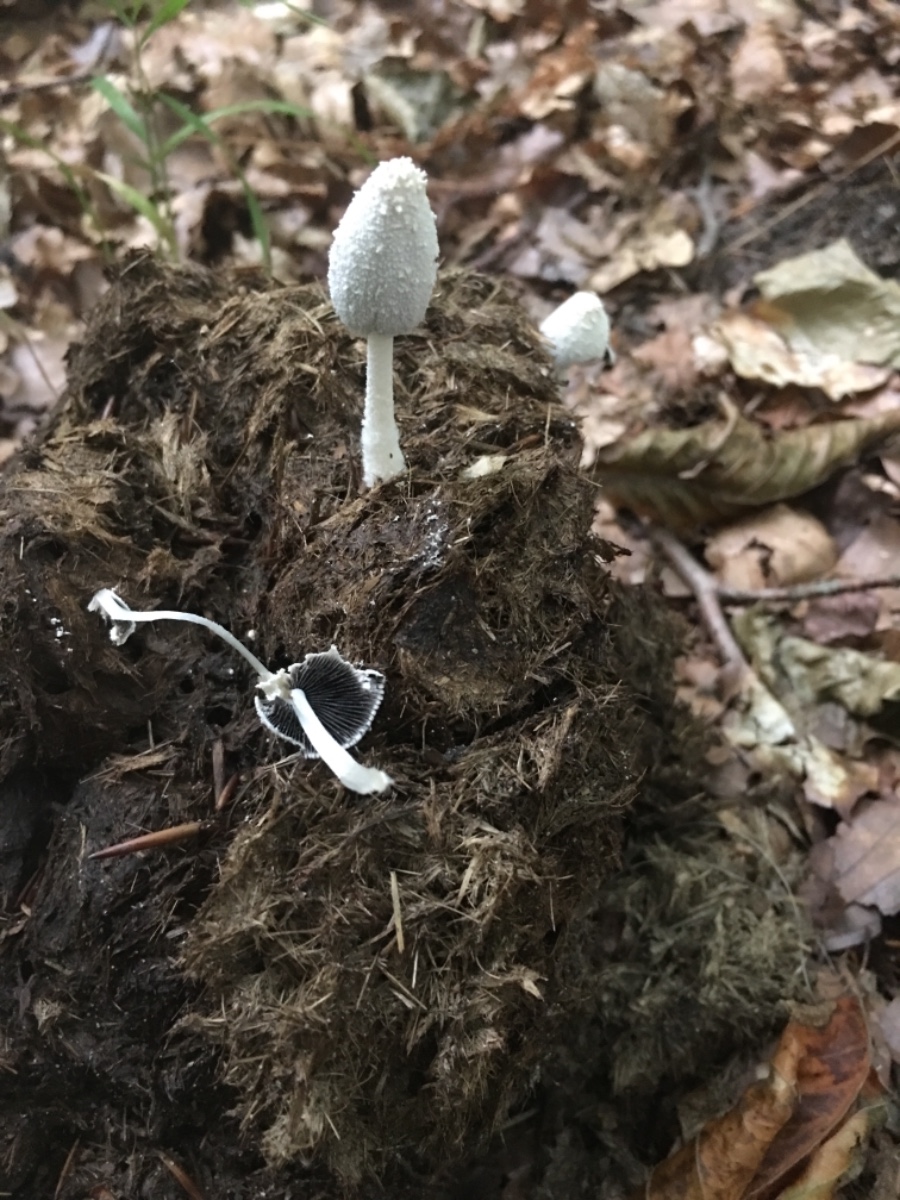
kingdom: Fungi
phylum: Basidiomycota
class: Agaricomycetes
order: Agaricales
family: Psathyrellaceae
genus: Coprinopsis
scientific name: Coprinopsis nivea
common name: snehvid blækhat
